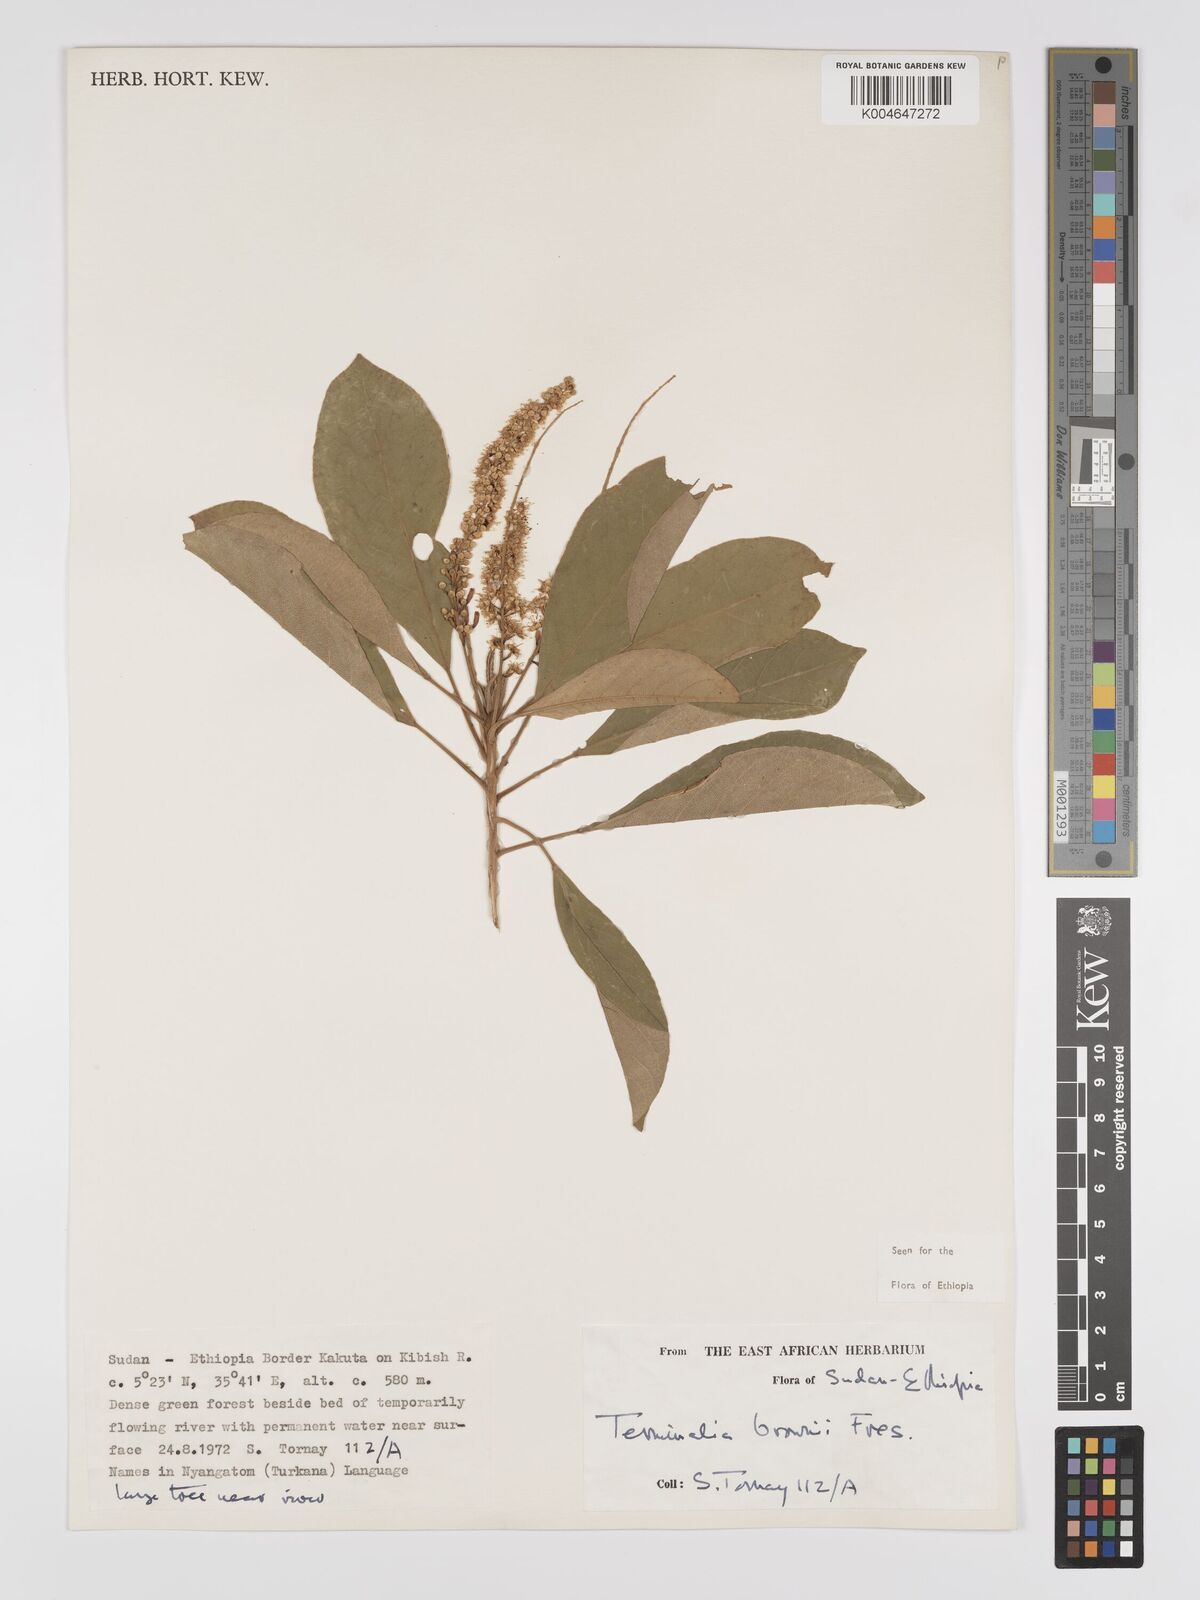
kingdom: Plantae
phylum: Tracheophyta
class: Magnoliopsida
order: Myrtales
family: Combretaceae
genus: Terminalia
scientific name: Terminalia brownii
